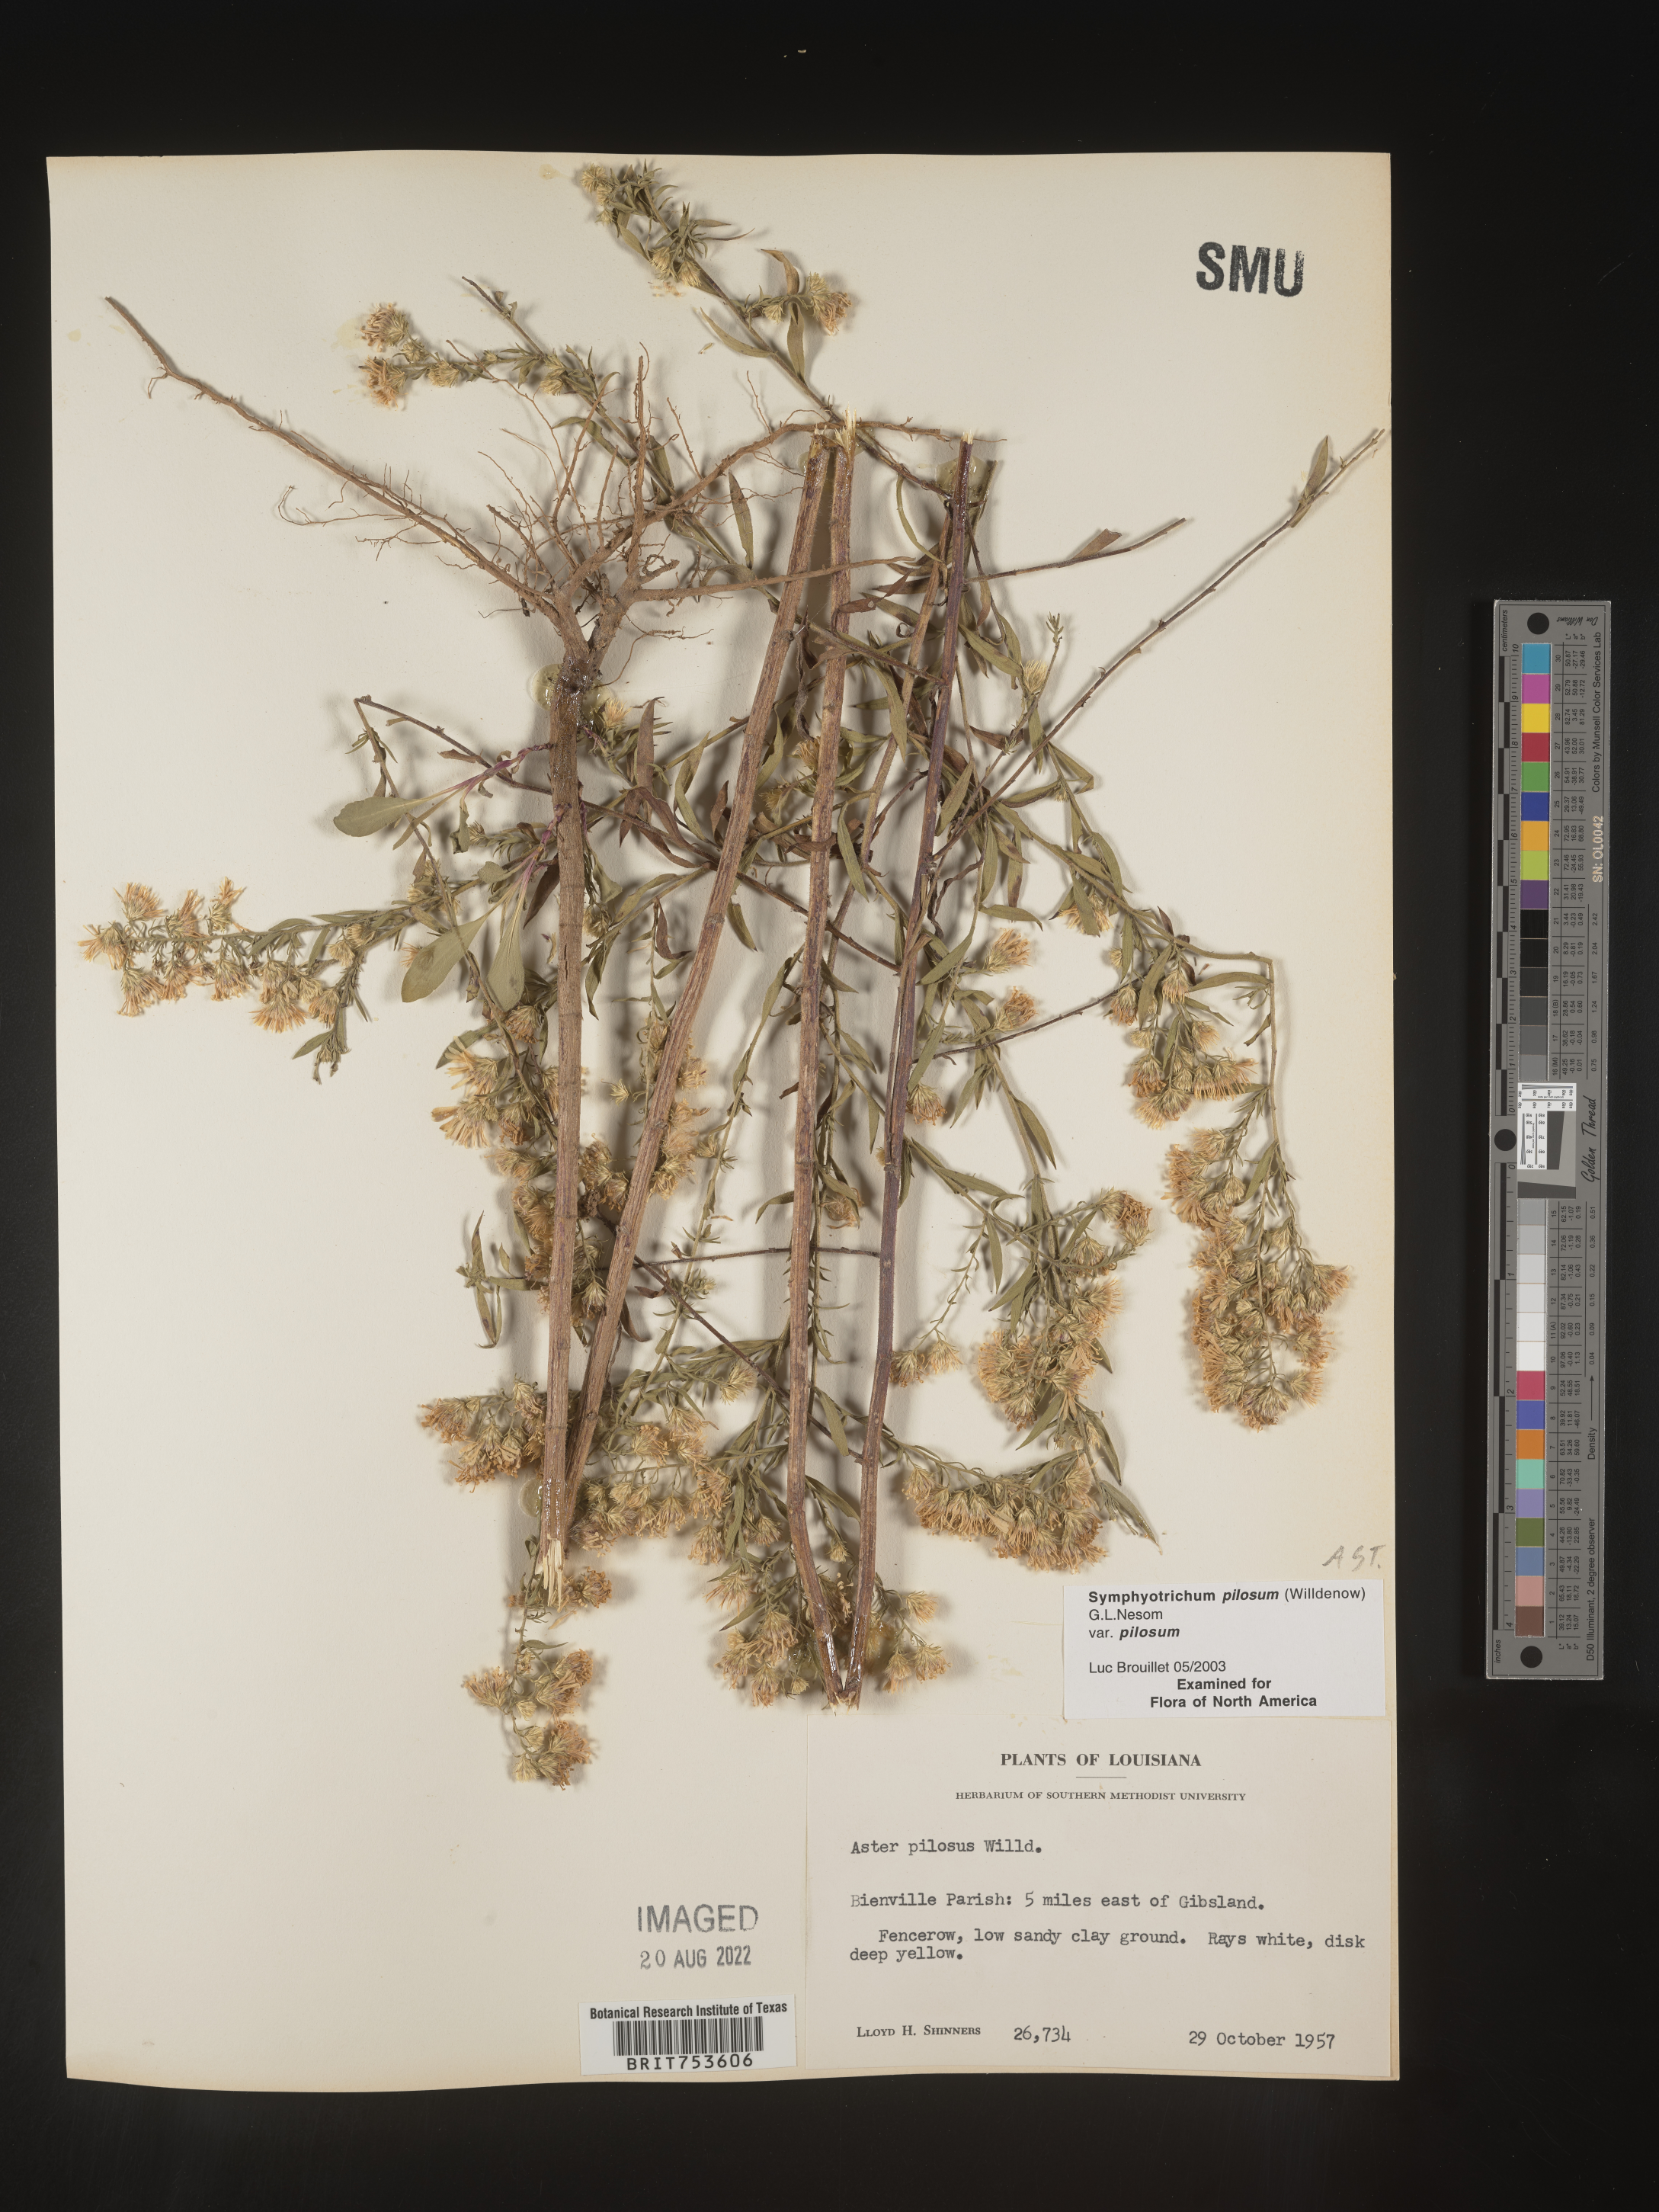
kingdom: Plantae
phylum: Tracheophyta
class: Magnoliopsida
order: Asterales
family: Asteraceae
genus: Symphyotrichum
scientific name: Symphyotrichum pilosum
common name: Awl aster
